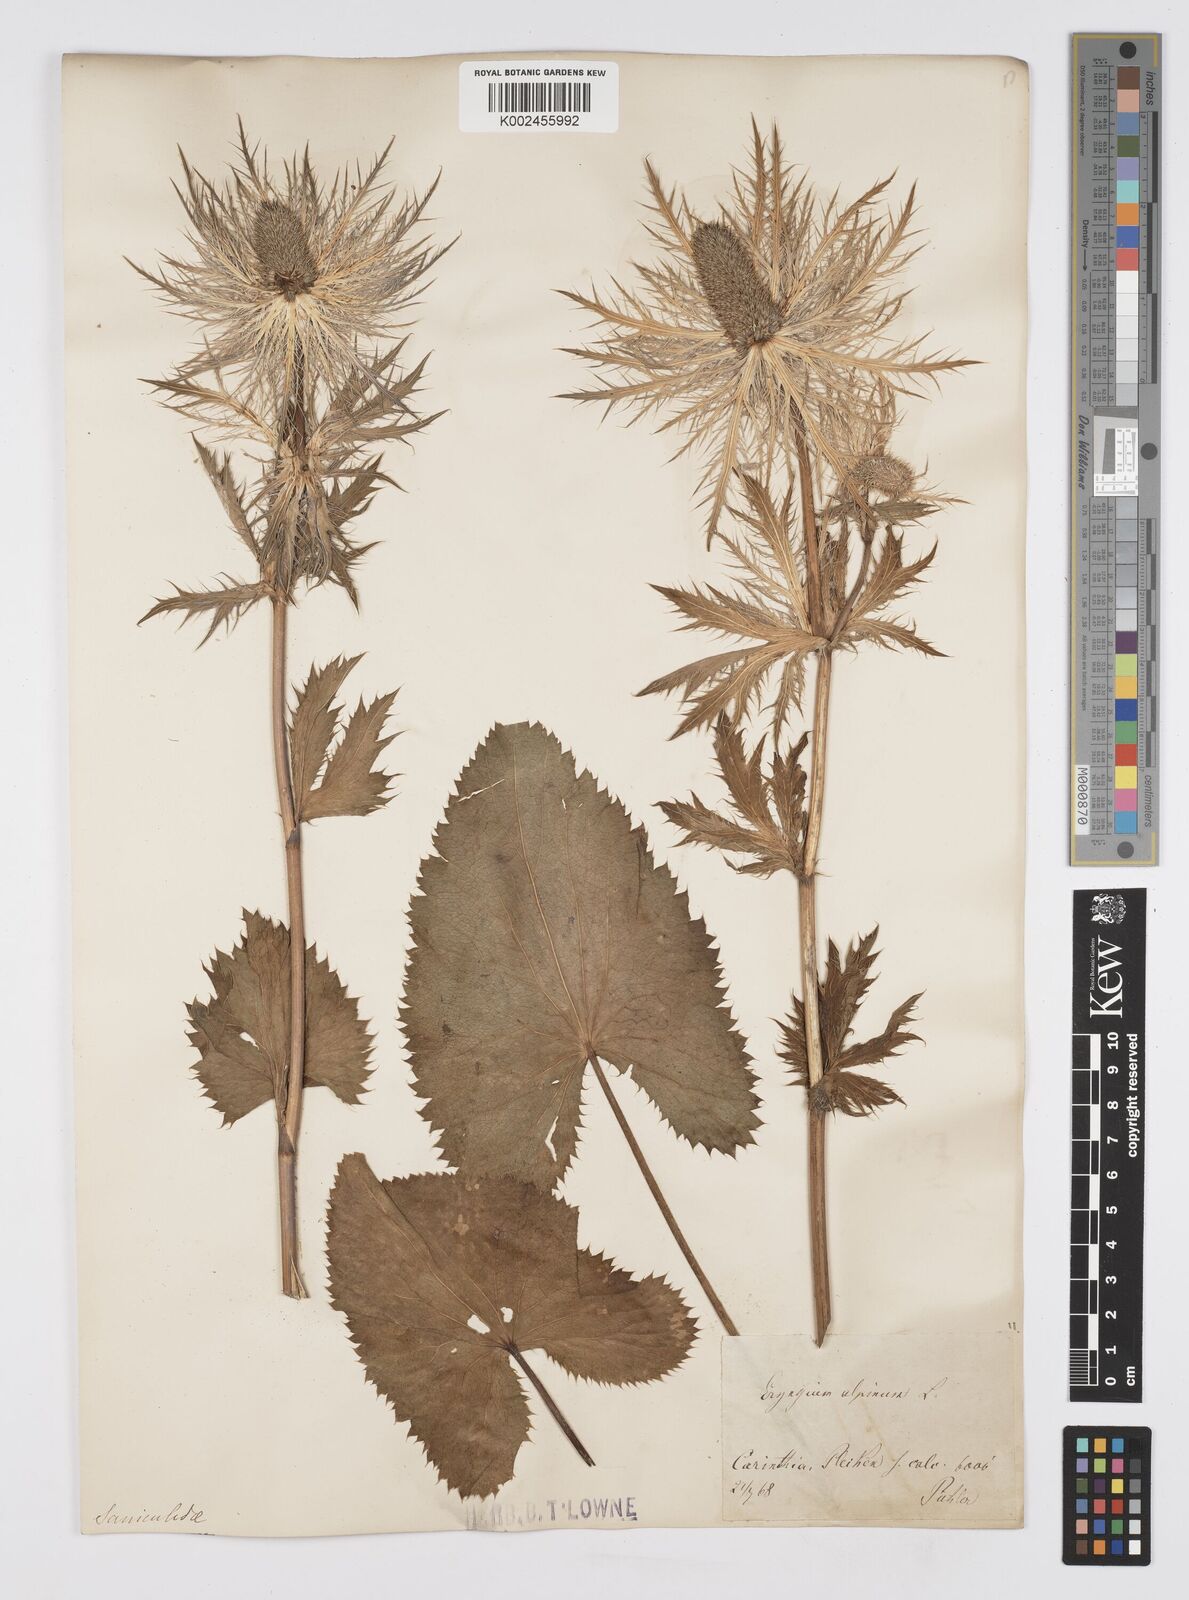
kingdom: Plantae
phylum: Tracheophyta
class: Magnoliopsida
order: Apiales
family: Apiaceae
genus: Eryngium
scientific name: Eryngium alpinum
